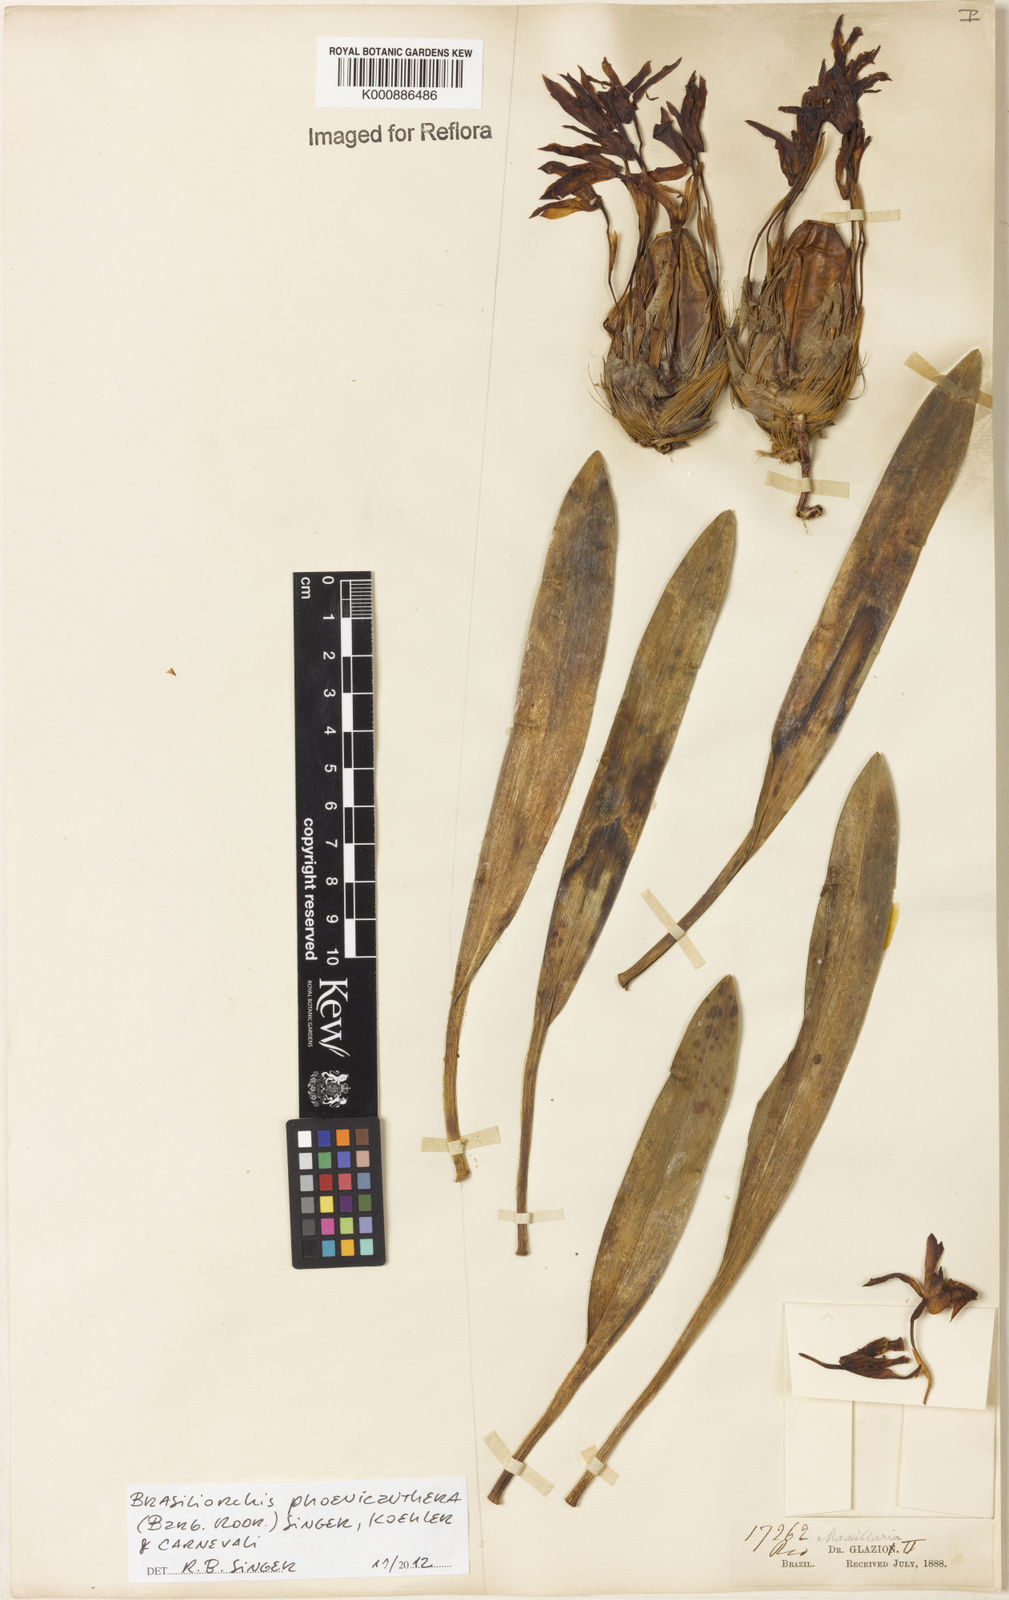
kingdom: Plantae
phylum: Tracheophyta
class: Liliopsida
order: Asparagales
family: Orchidaceae
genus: Maxillaria
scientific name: Maxillaria phoenicanthera
